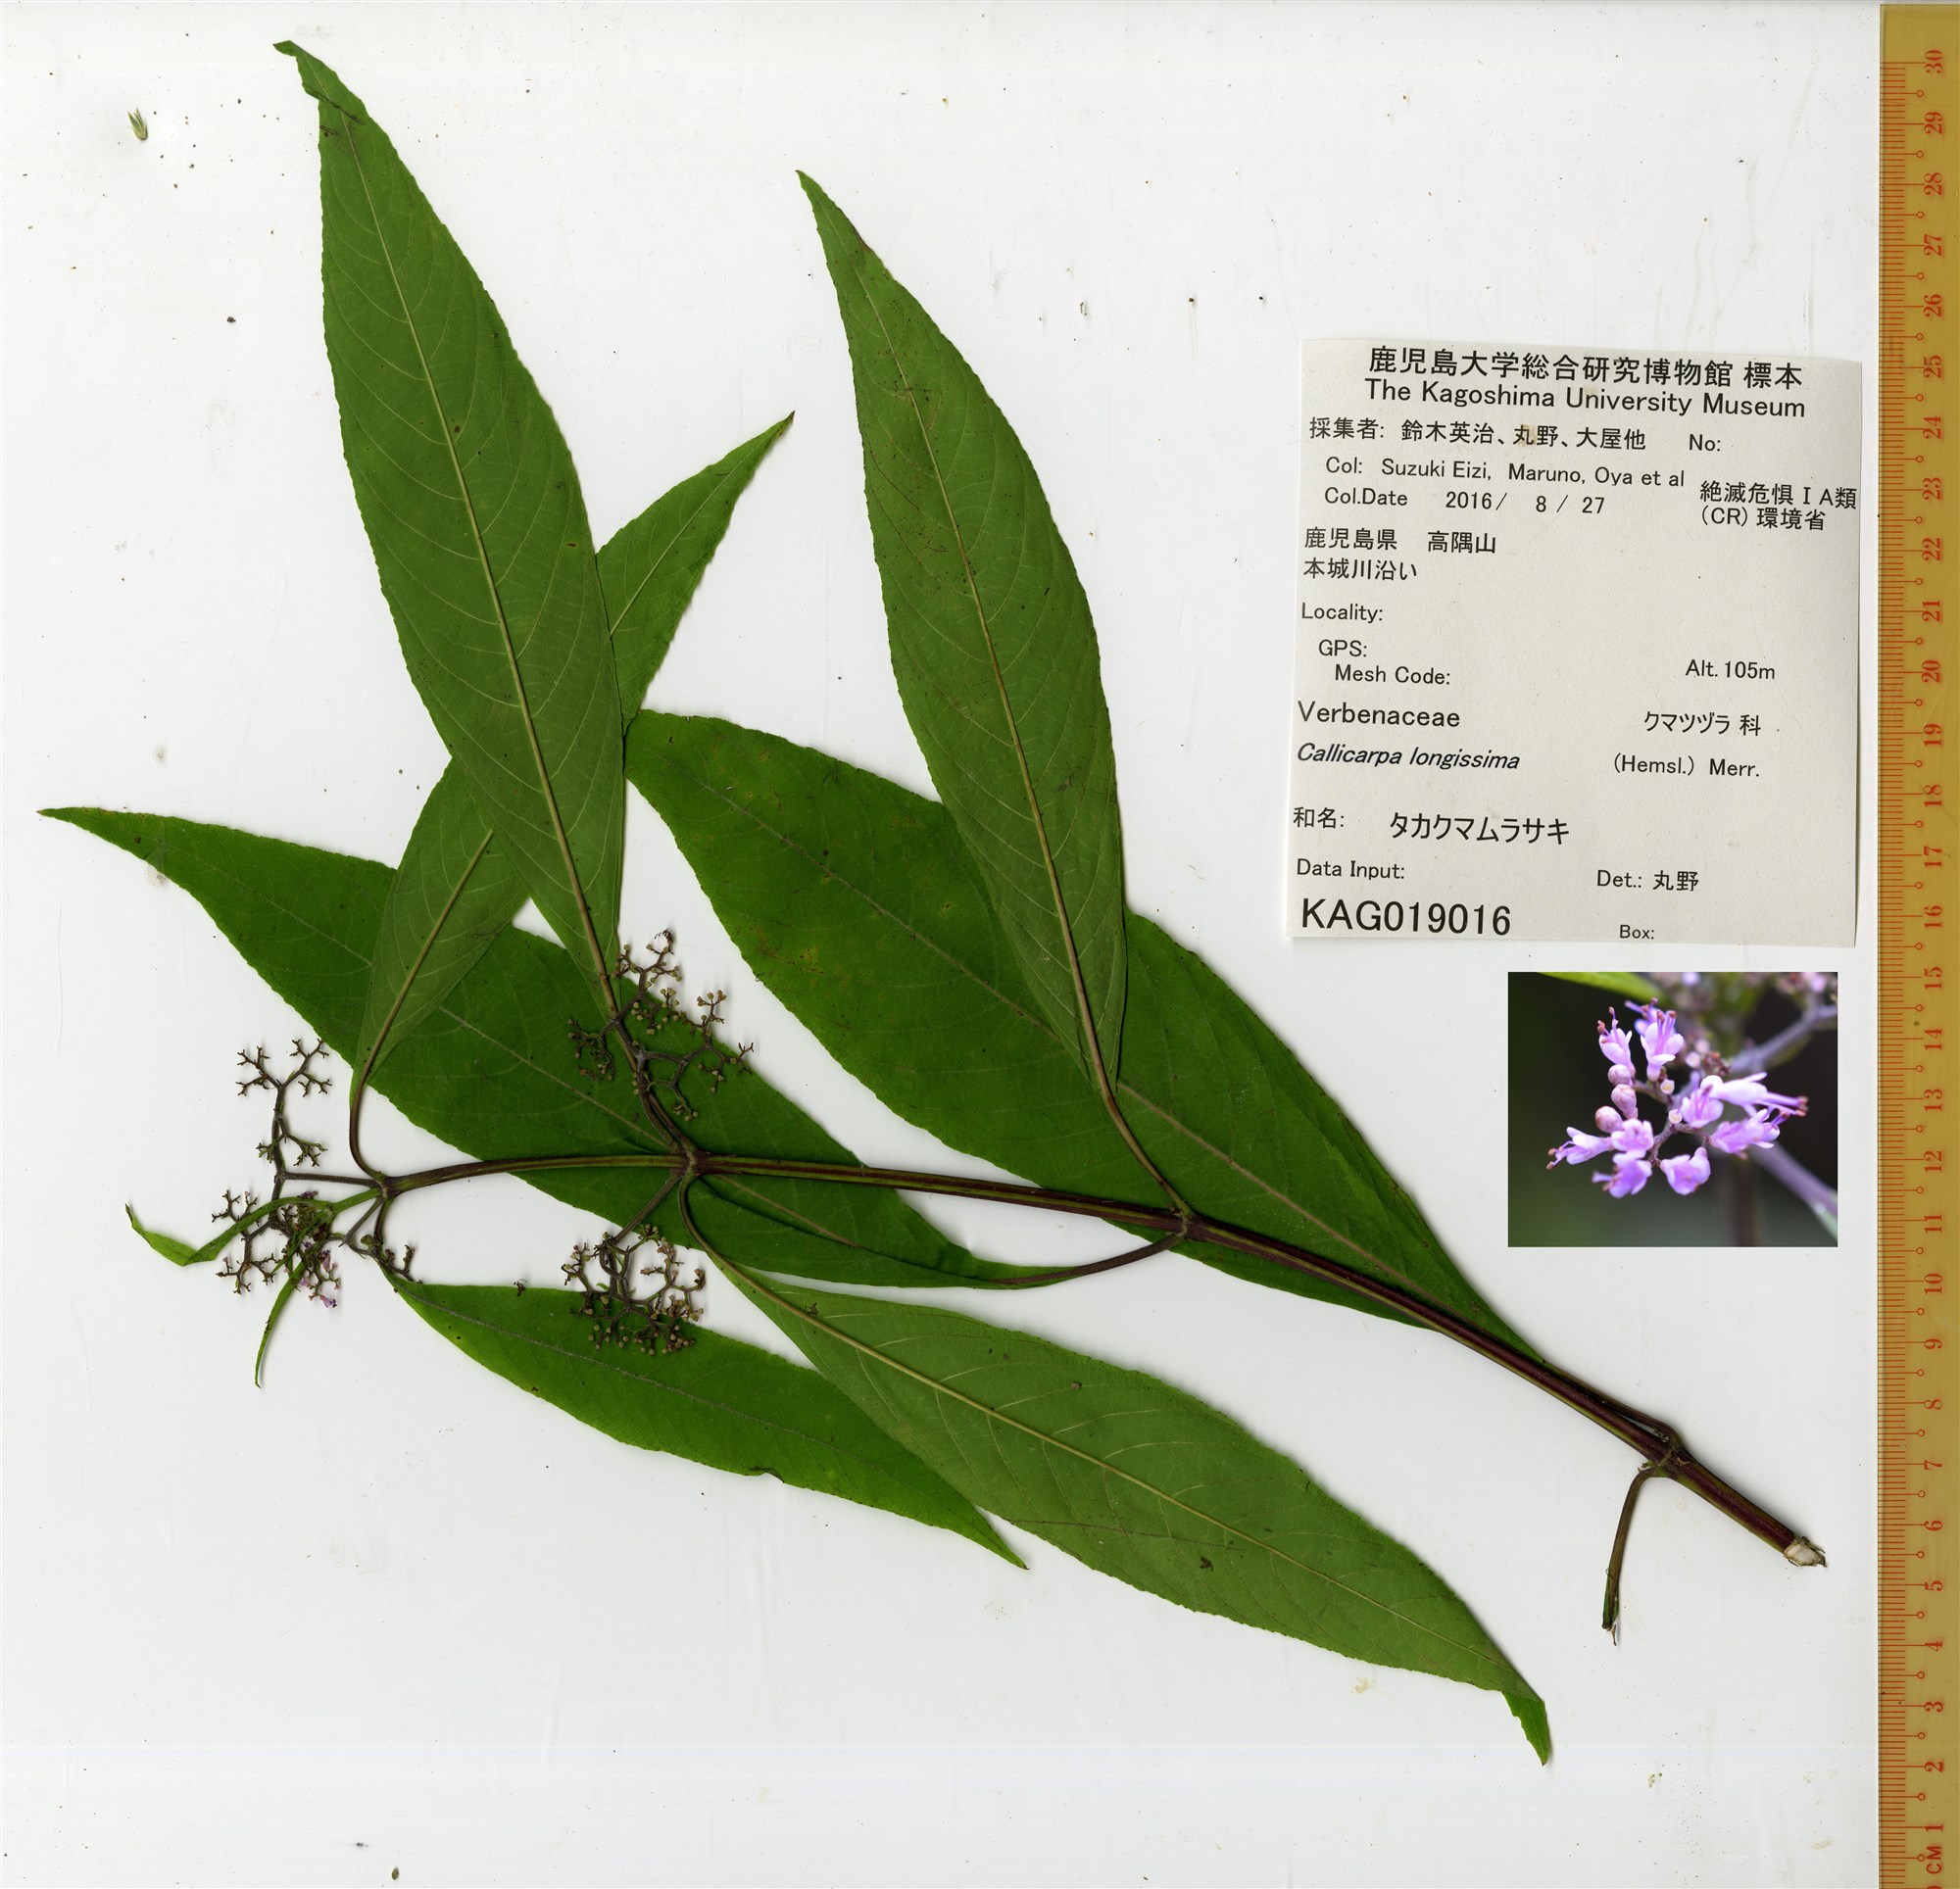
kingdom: Plantae
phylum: Tracheophyta
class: Magnoliopsida
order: Lamiales
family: Lamiaceae
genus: Callicarpa
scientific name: Callicarpa dolichophylla
